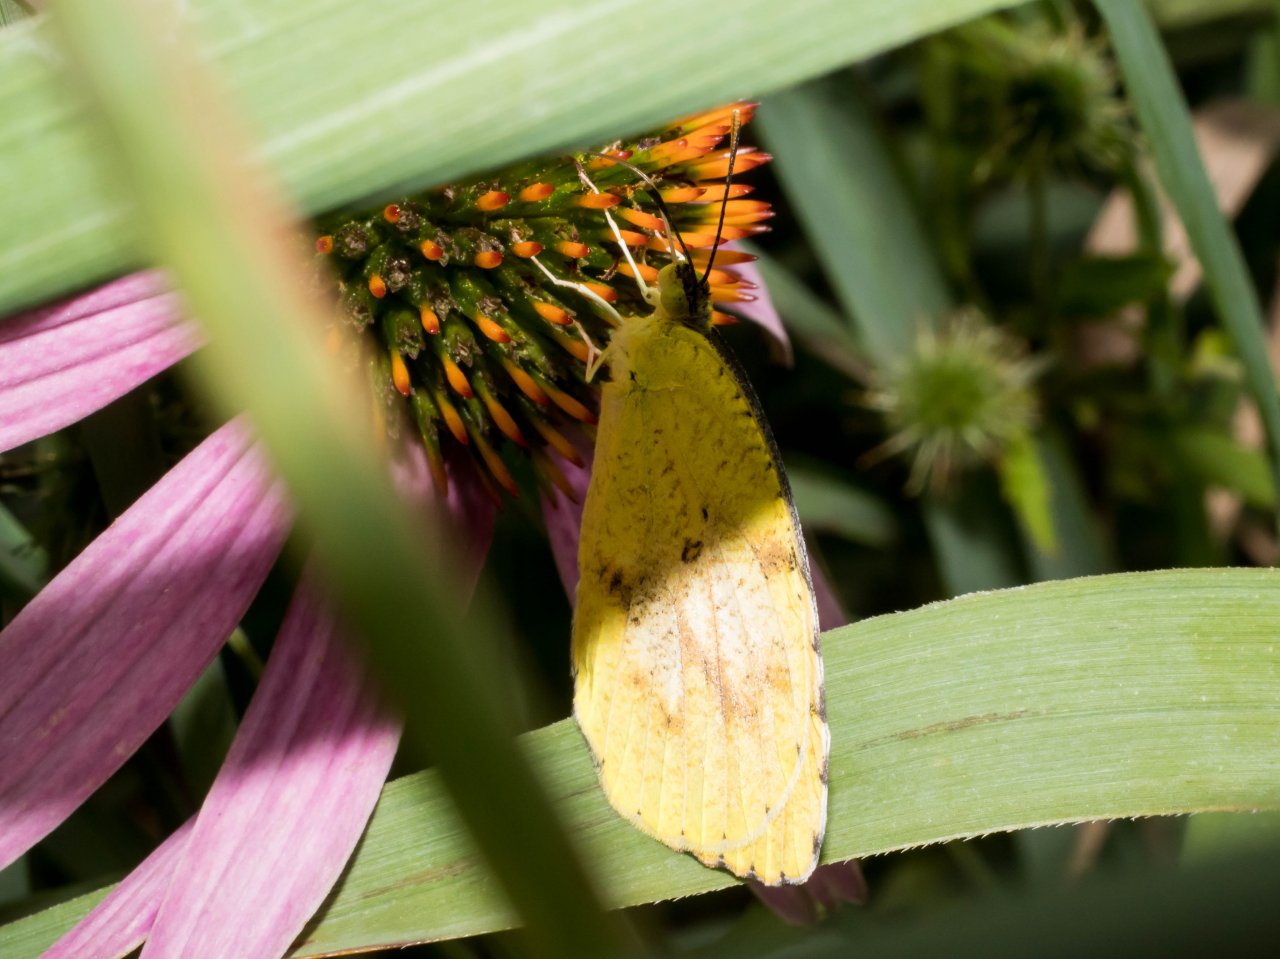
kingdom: Animalia
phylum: Arthropoda
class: Insecta
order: Lepidoptera
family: Pieridae
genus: Abaeis
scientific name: Abaeis nicippe
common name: Sleepy Orange
